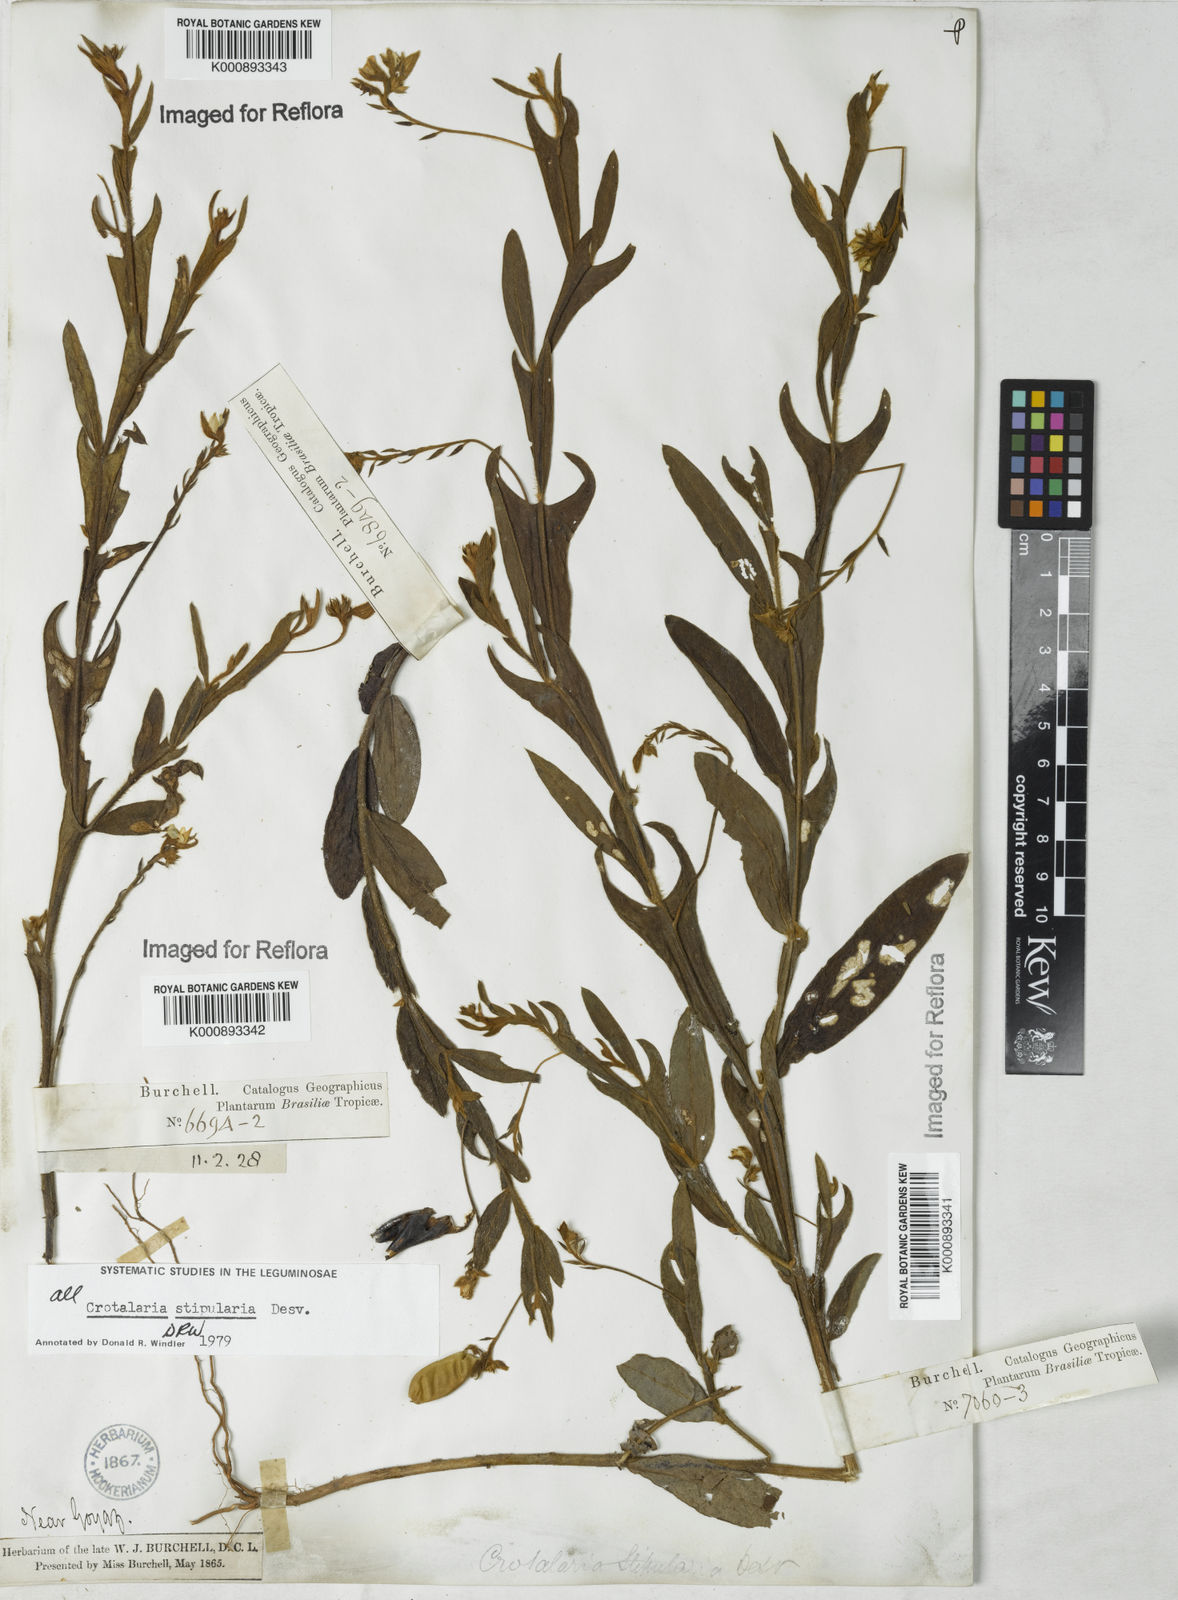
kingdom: Plantae
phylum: Tracheophyta
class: Magnoliopsida
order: Fabales
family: Fabaceae
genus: Crotalaria
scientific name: Crotalaria stipularia
